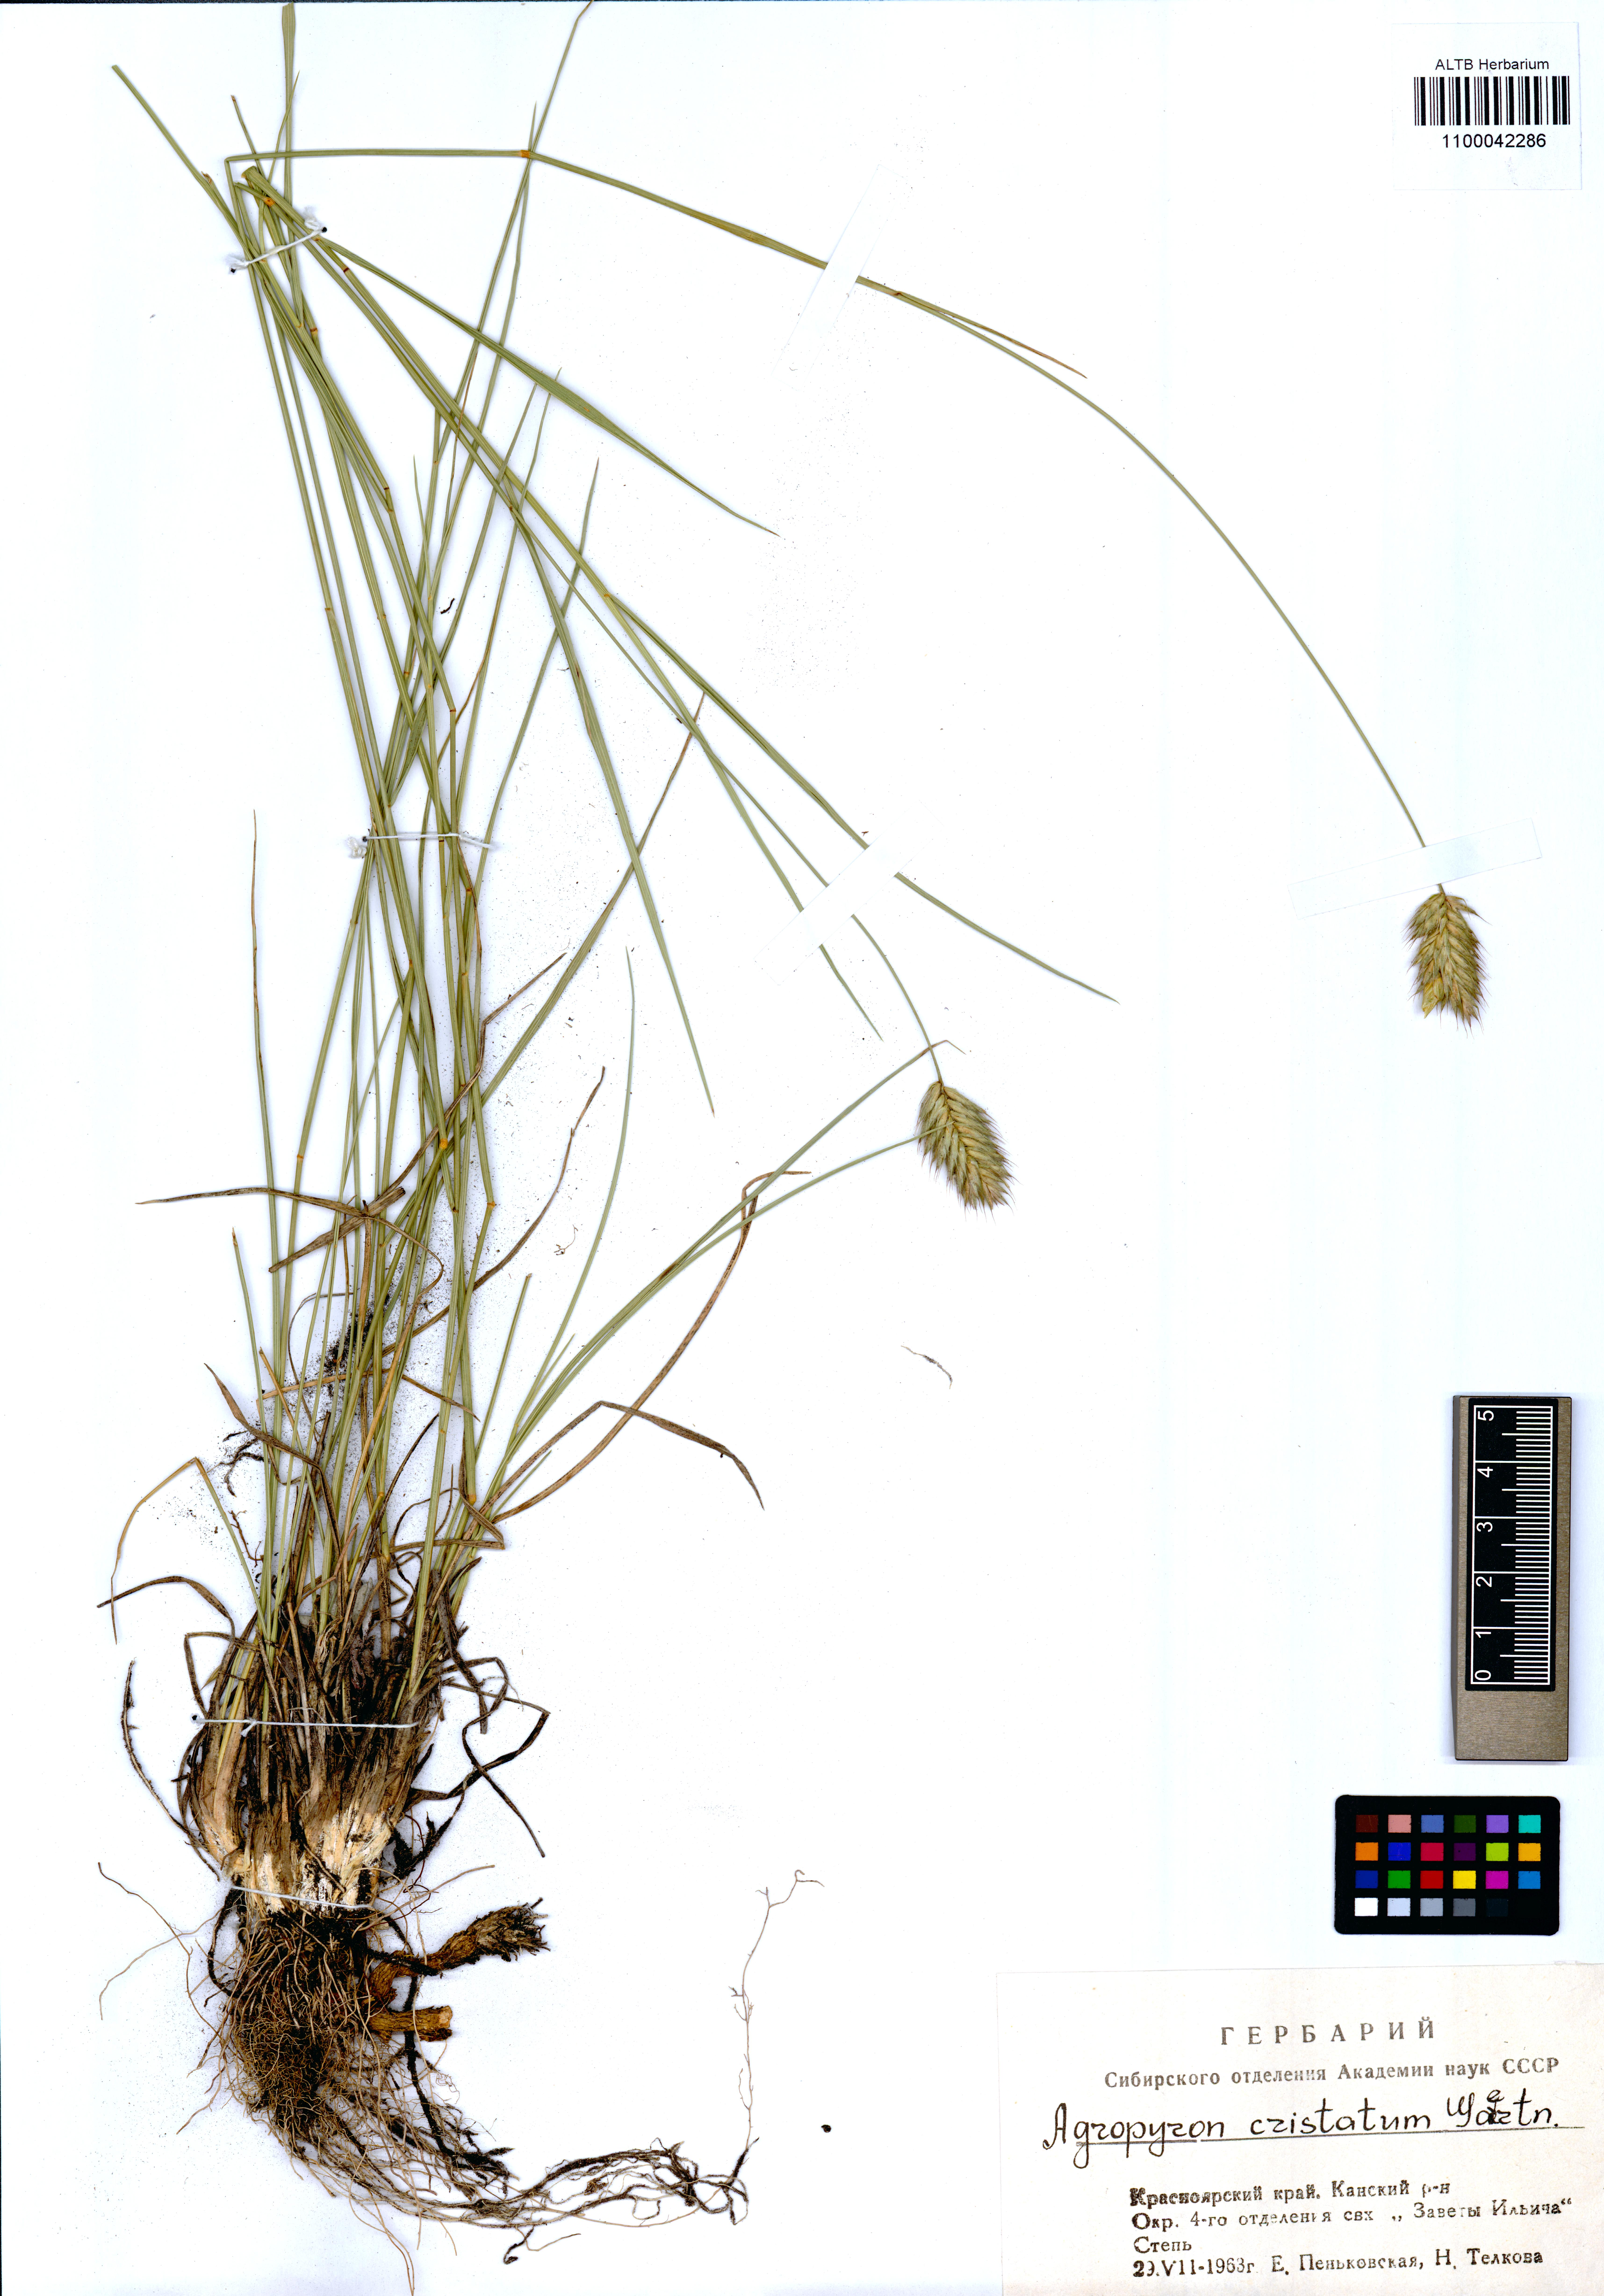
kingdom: Plantae
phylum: Tracheophyta
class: Liliopsida
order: Poales
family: Poaceae
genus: Agropyron
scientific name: Agropyron cristatum
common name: Crested wheatgrass
